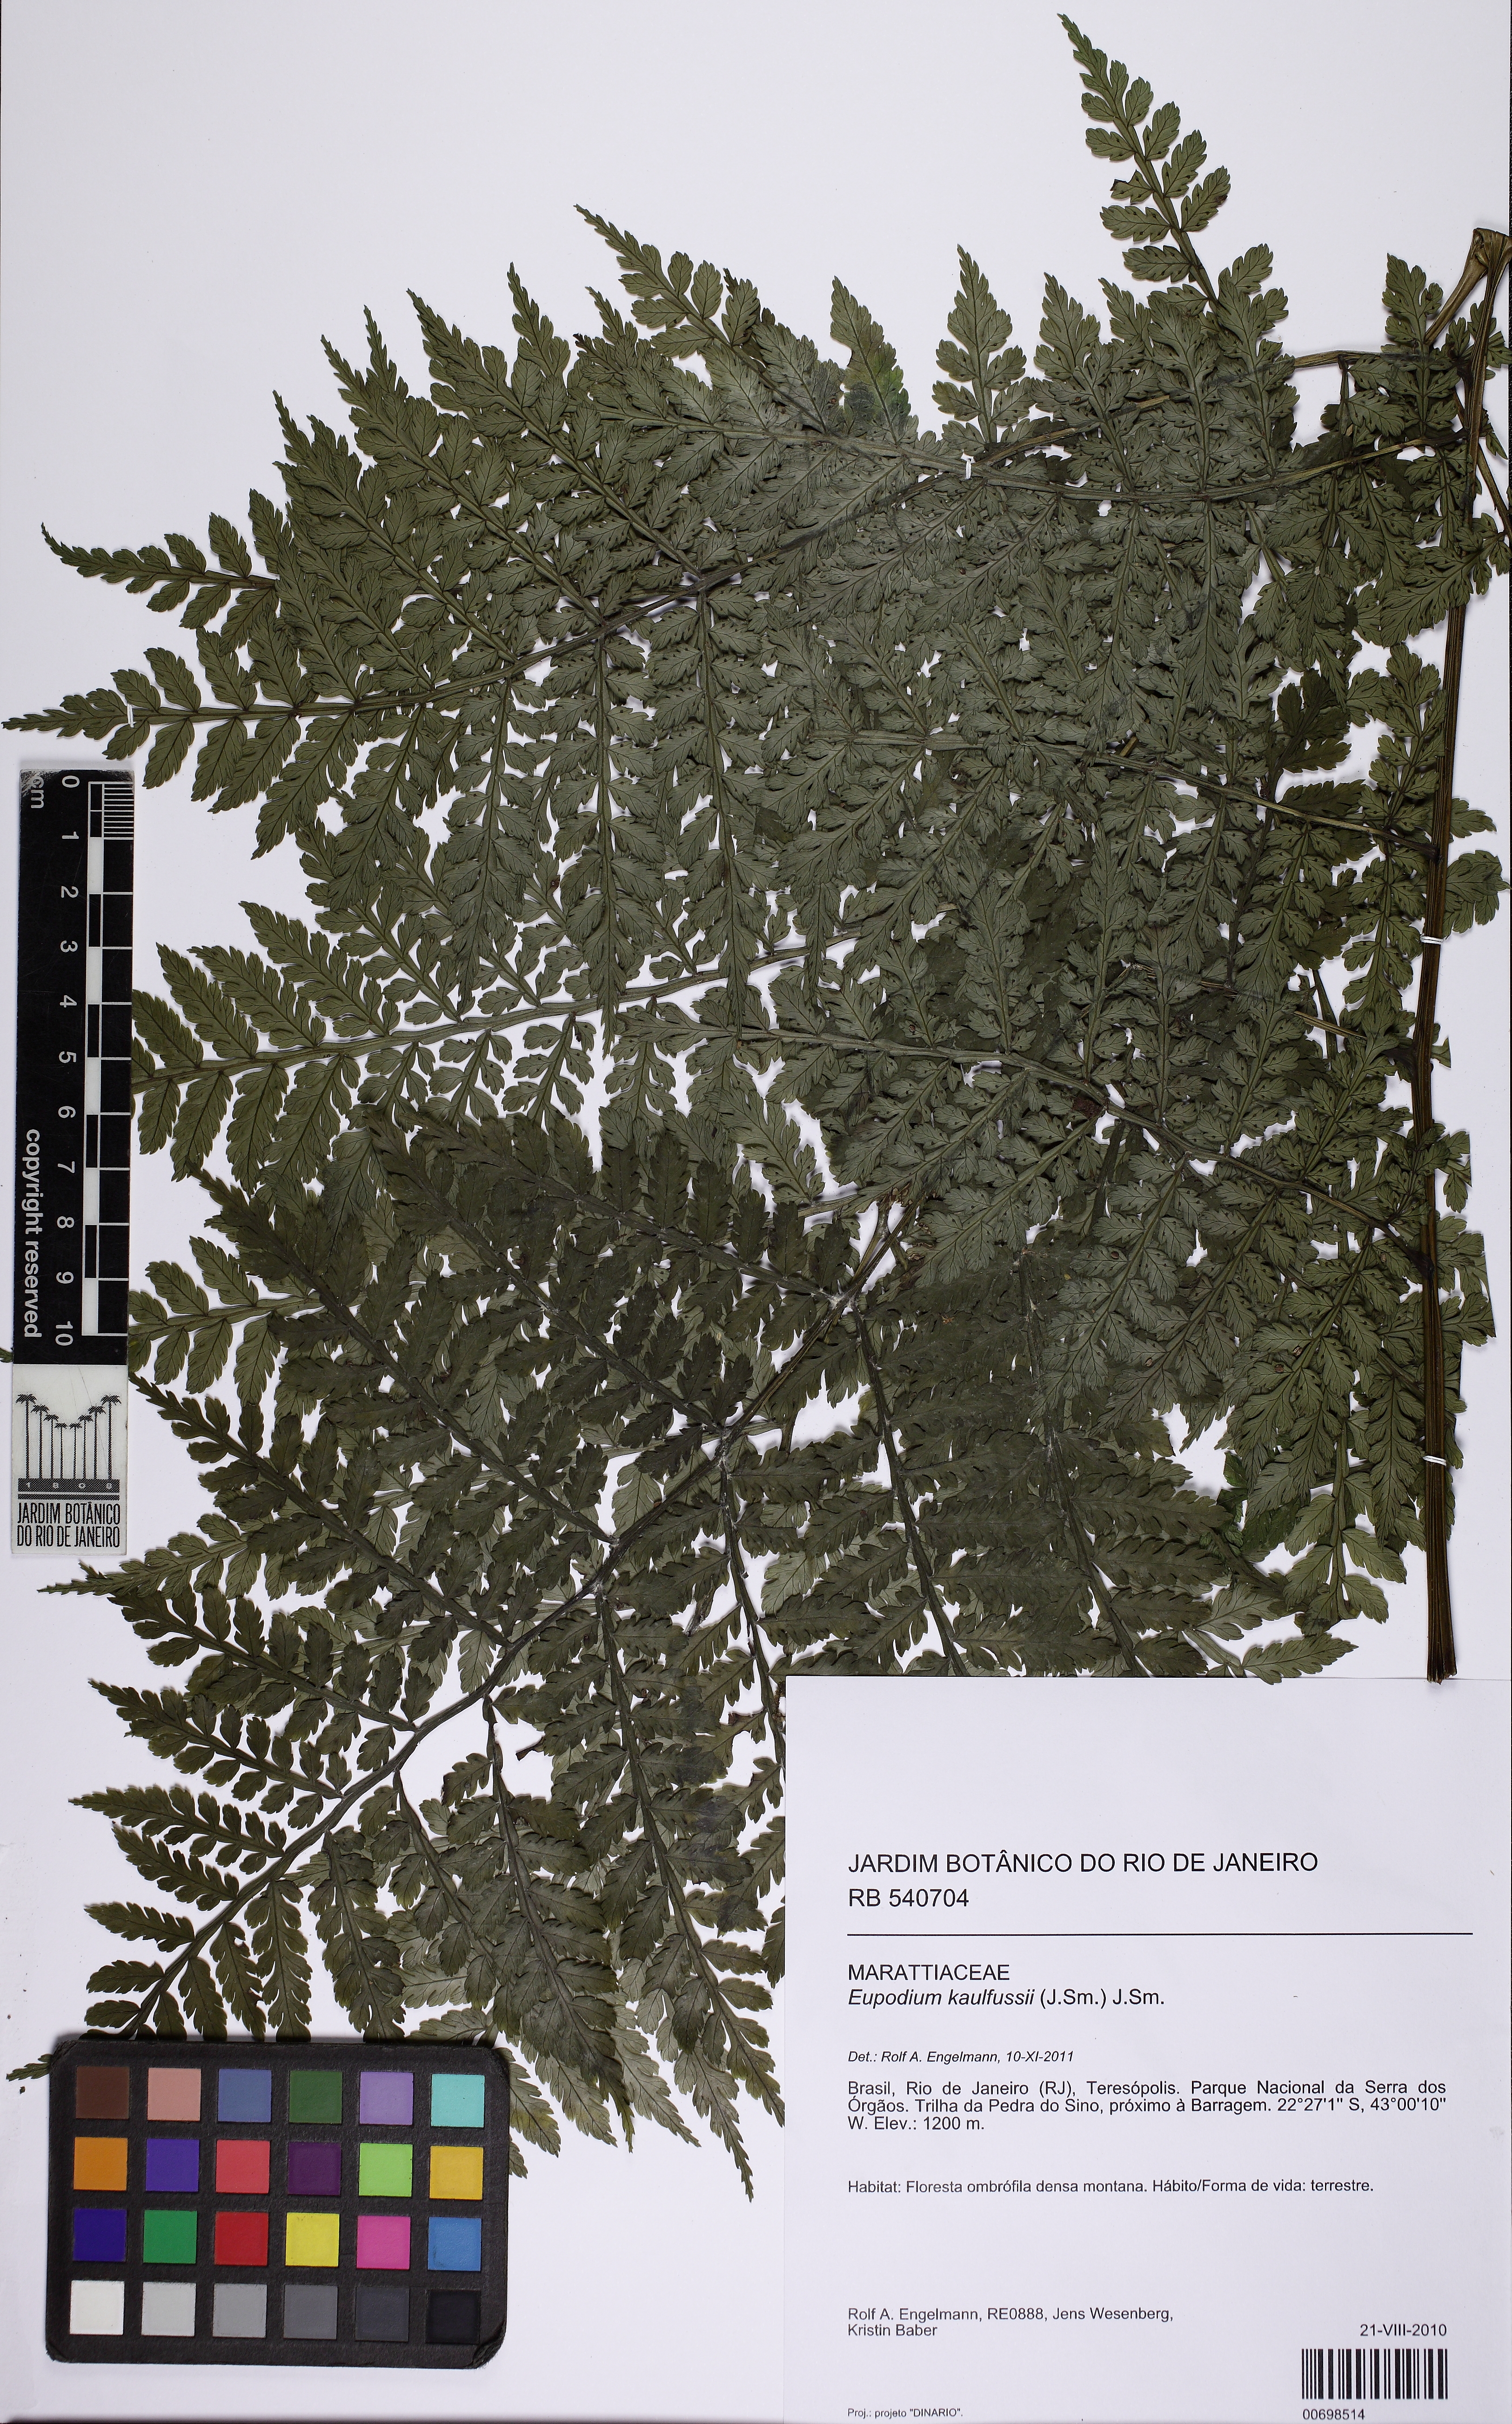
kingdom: Plantae
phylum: Tracheophyta
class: Polypodiopsida
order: Marattiales
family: Marattiaceae
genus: Eupodium
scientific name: Eupodium kaulfussii
